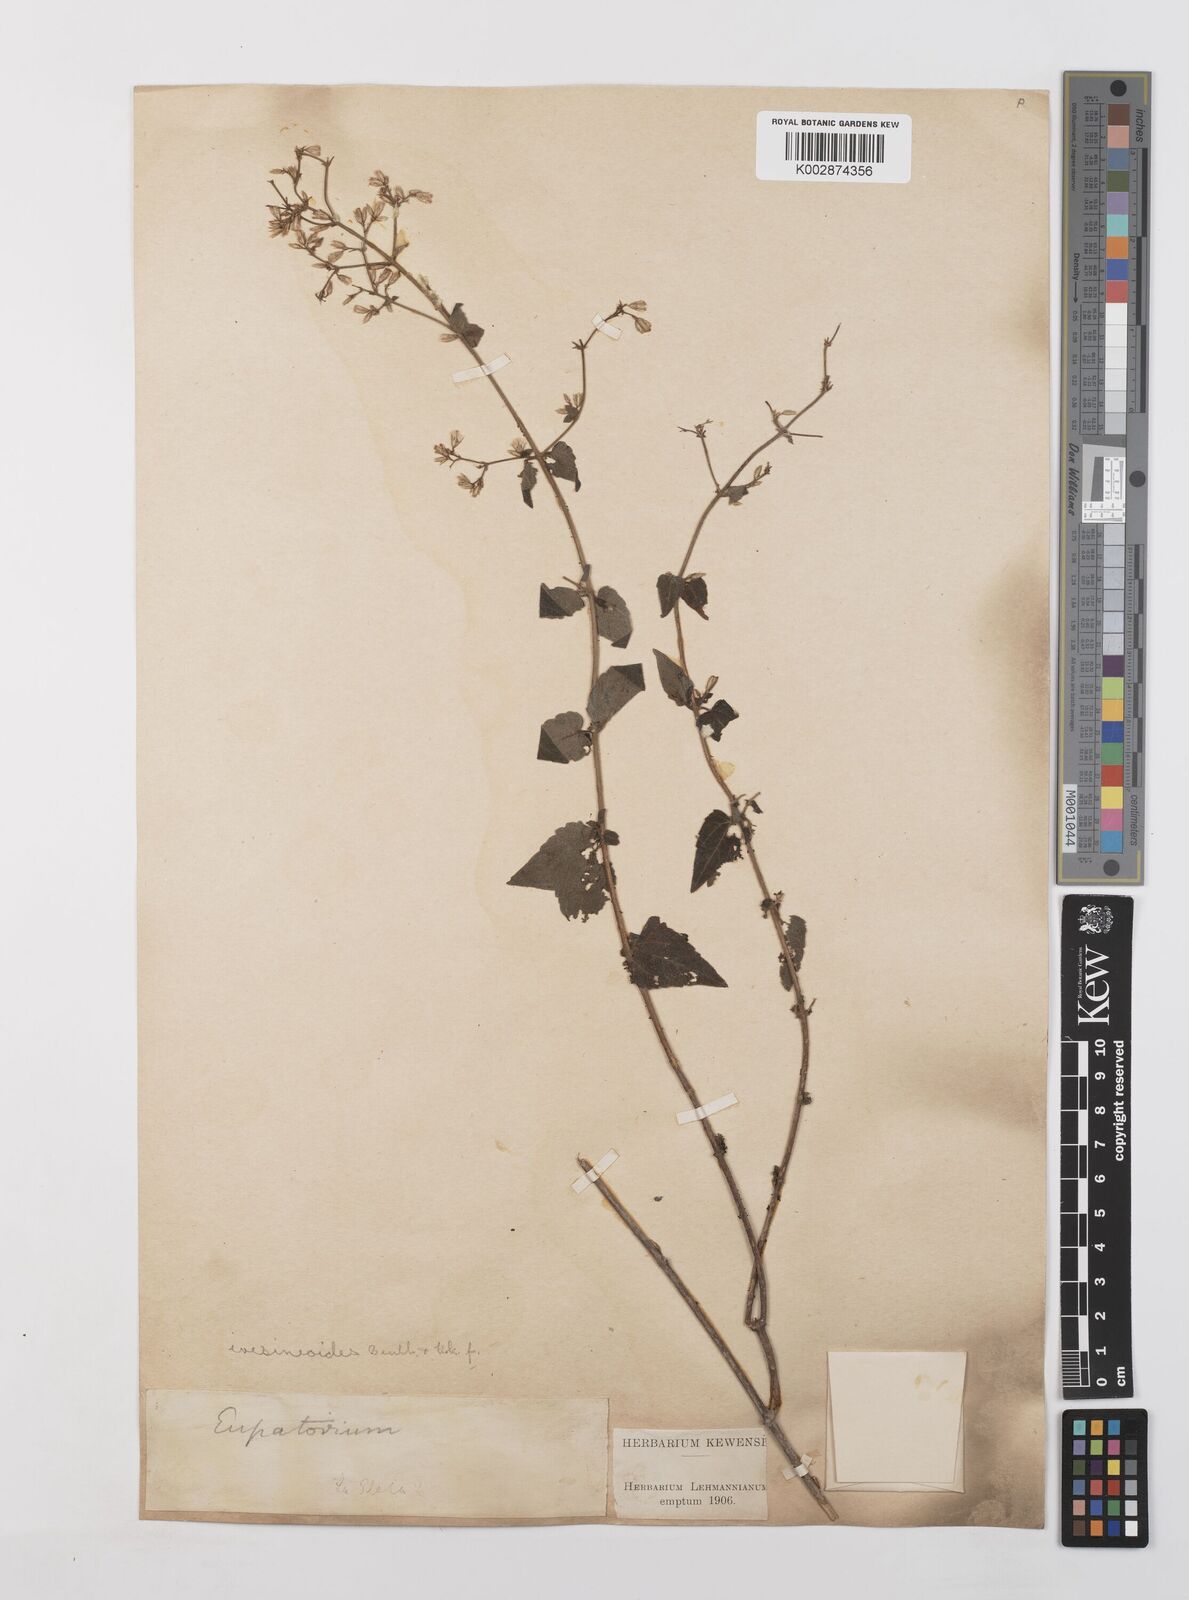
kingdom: Plantae
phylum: Tracheophyta
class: Magnoliopsida
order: Asterales
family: Asteraceae
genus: Condylidium
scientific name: Condylidium iresinoides
